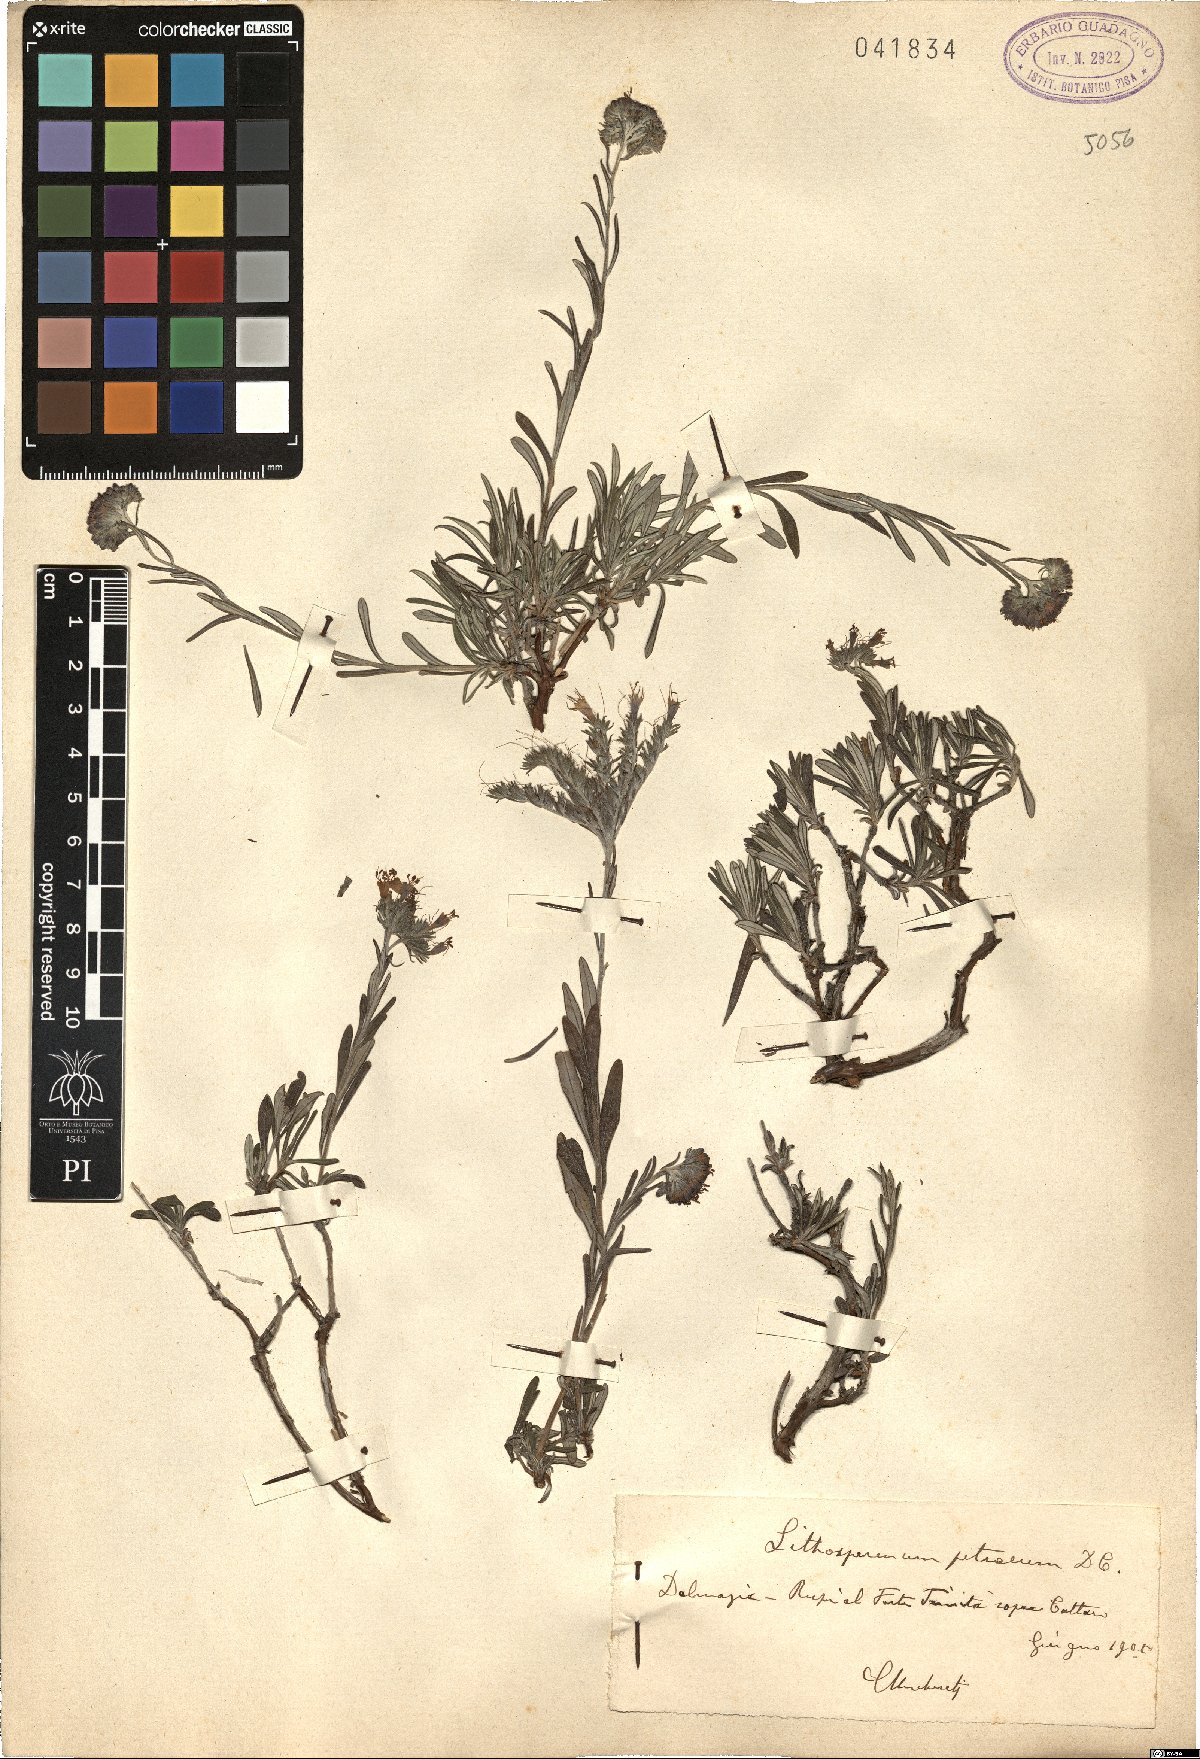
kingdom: Plantae
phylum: Tracheophyta
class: Magnoliopsida
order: Boraginales
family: Boraginaceae
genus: Lithospermum
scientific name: Lithospermum
